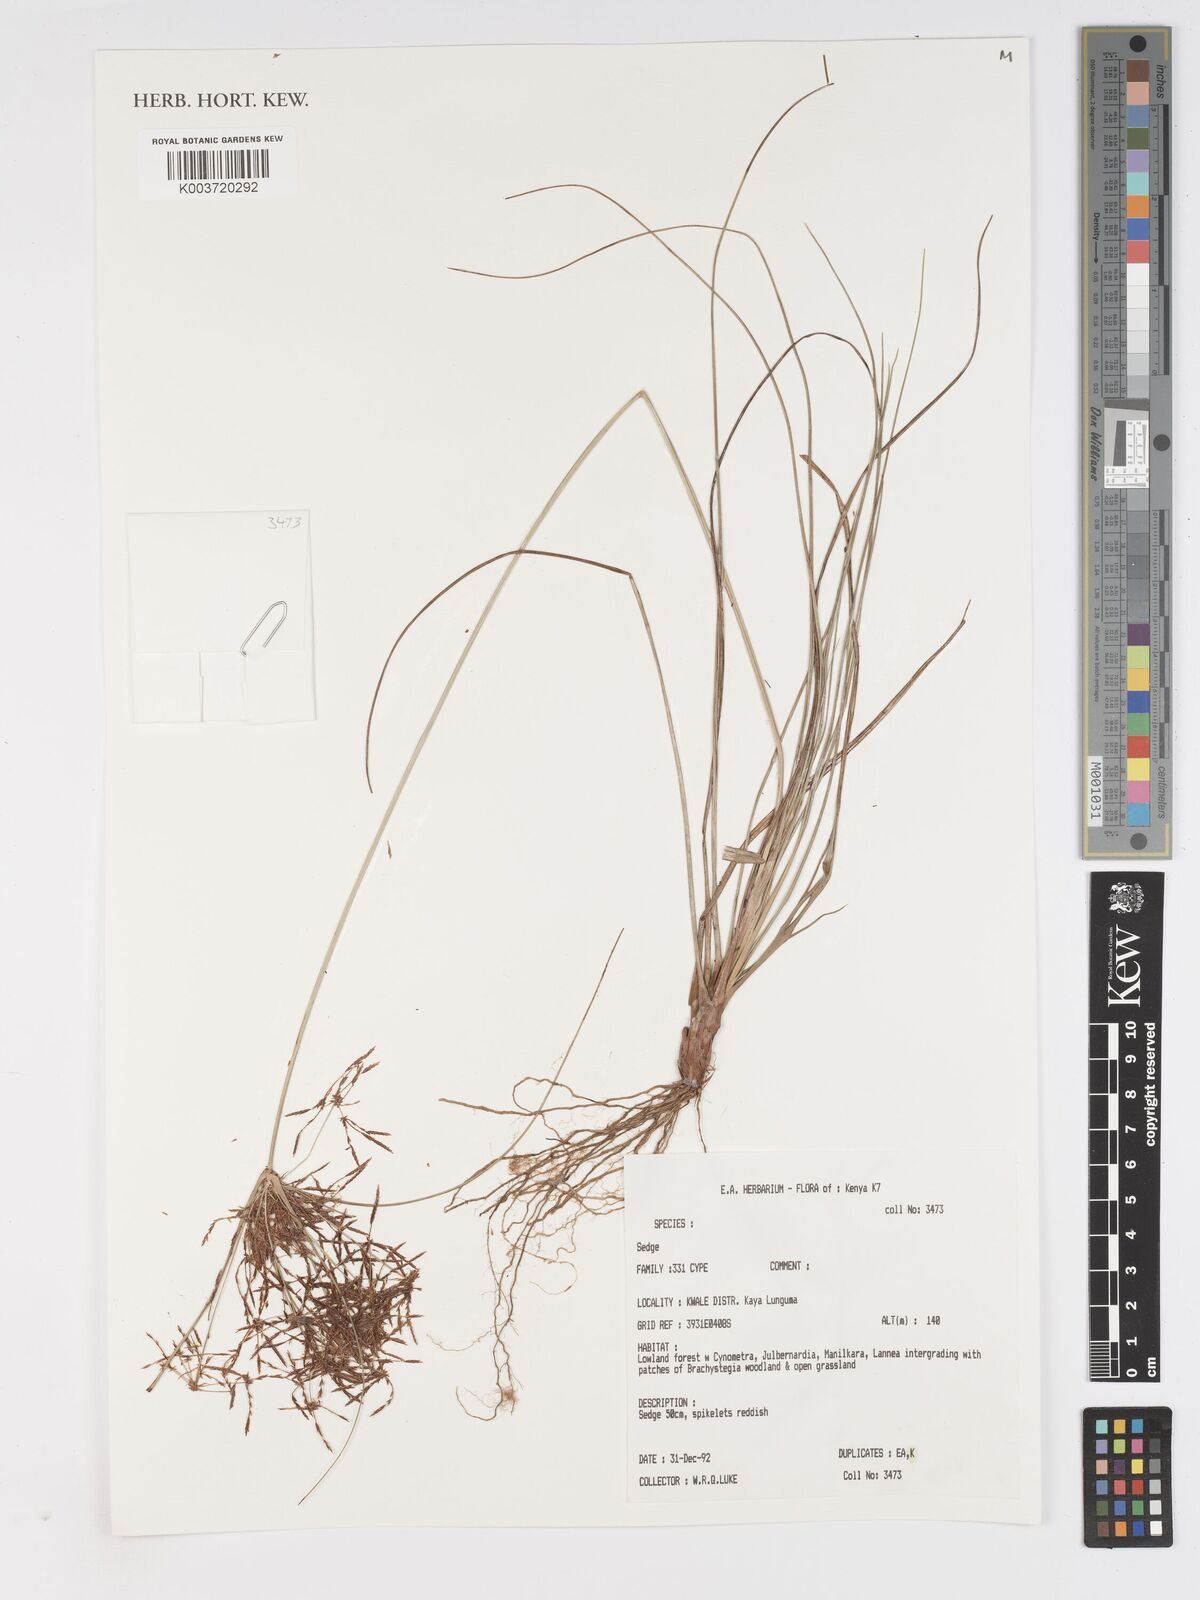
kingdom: Plantae
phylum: Tracheophyta
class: Liliopsida
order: Poales
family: Cyperaceae
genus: Cyperus
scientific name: Cyperus
